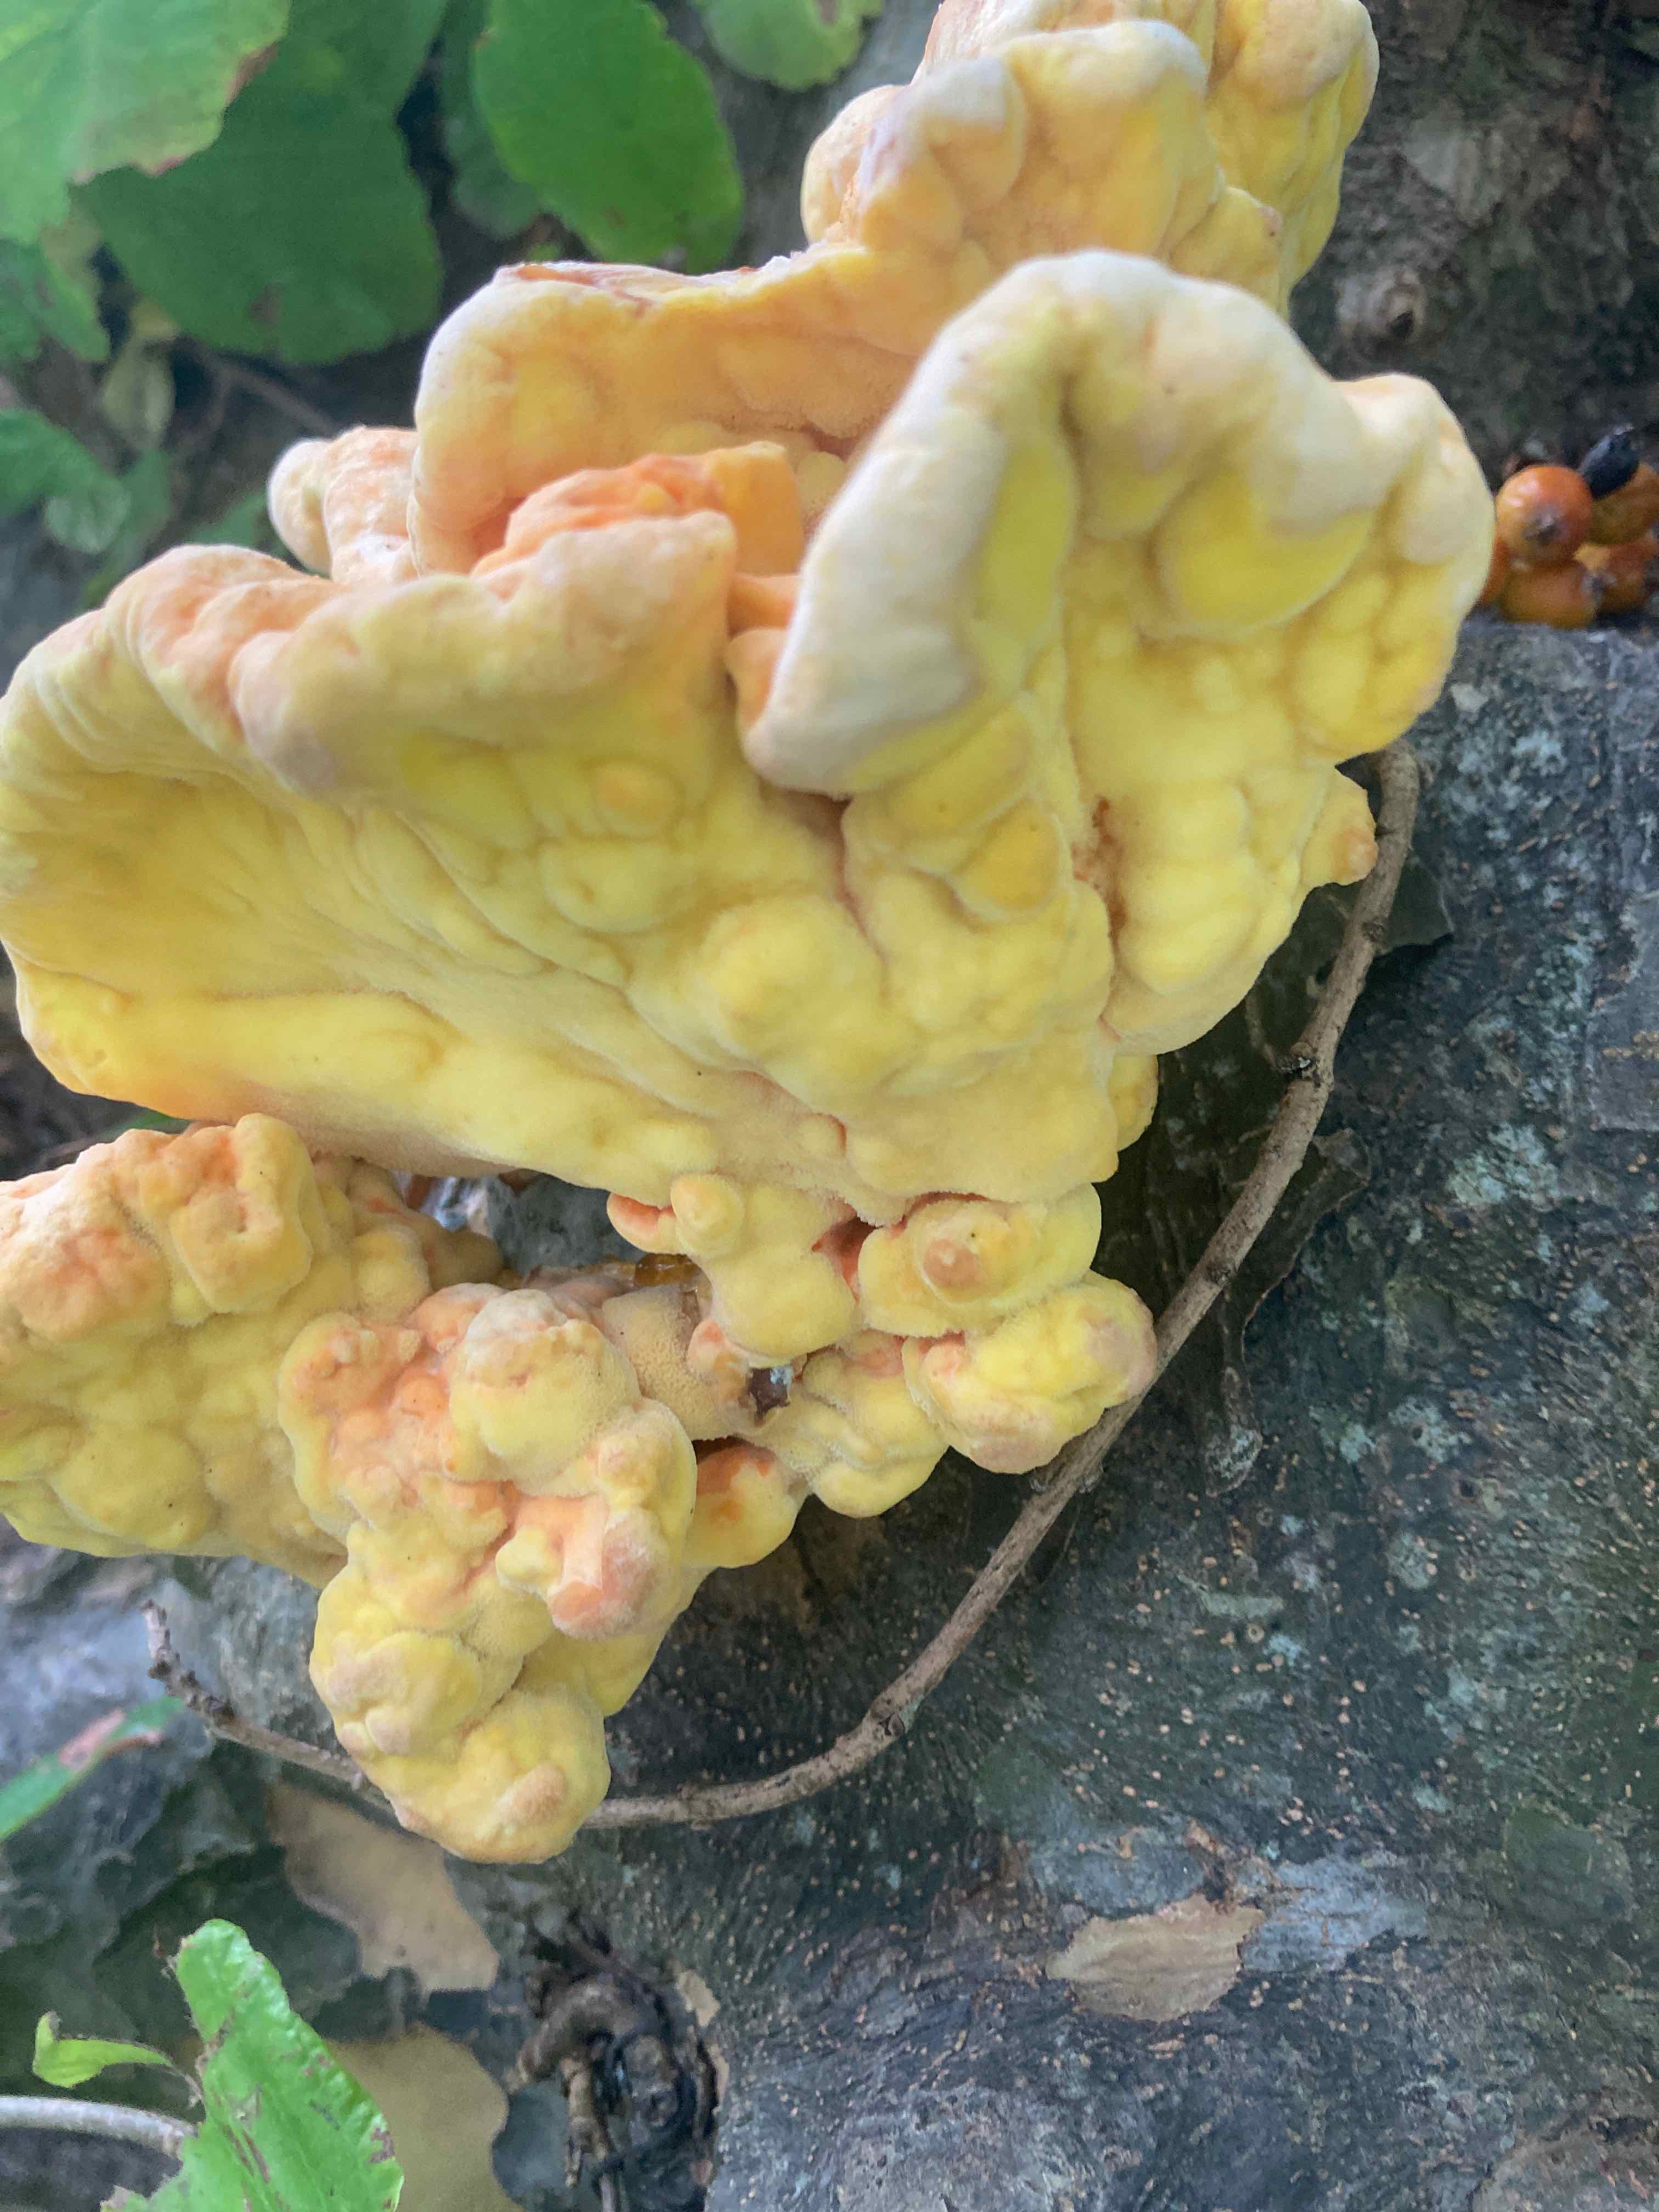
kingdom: Fungi
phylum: Basidiomycota
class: Agaricomycetes
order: Polyporales
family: Laetiporaceae
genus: Laetiporus
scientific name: Laetiporus sulphureus
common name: svovlporesvamp
